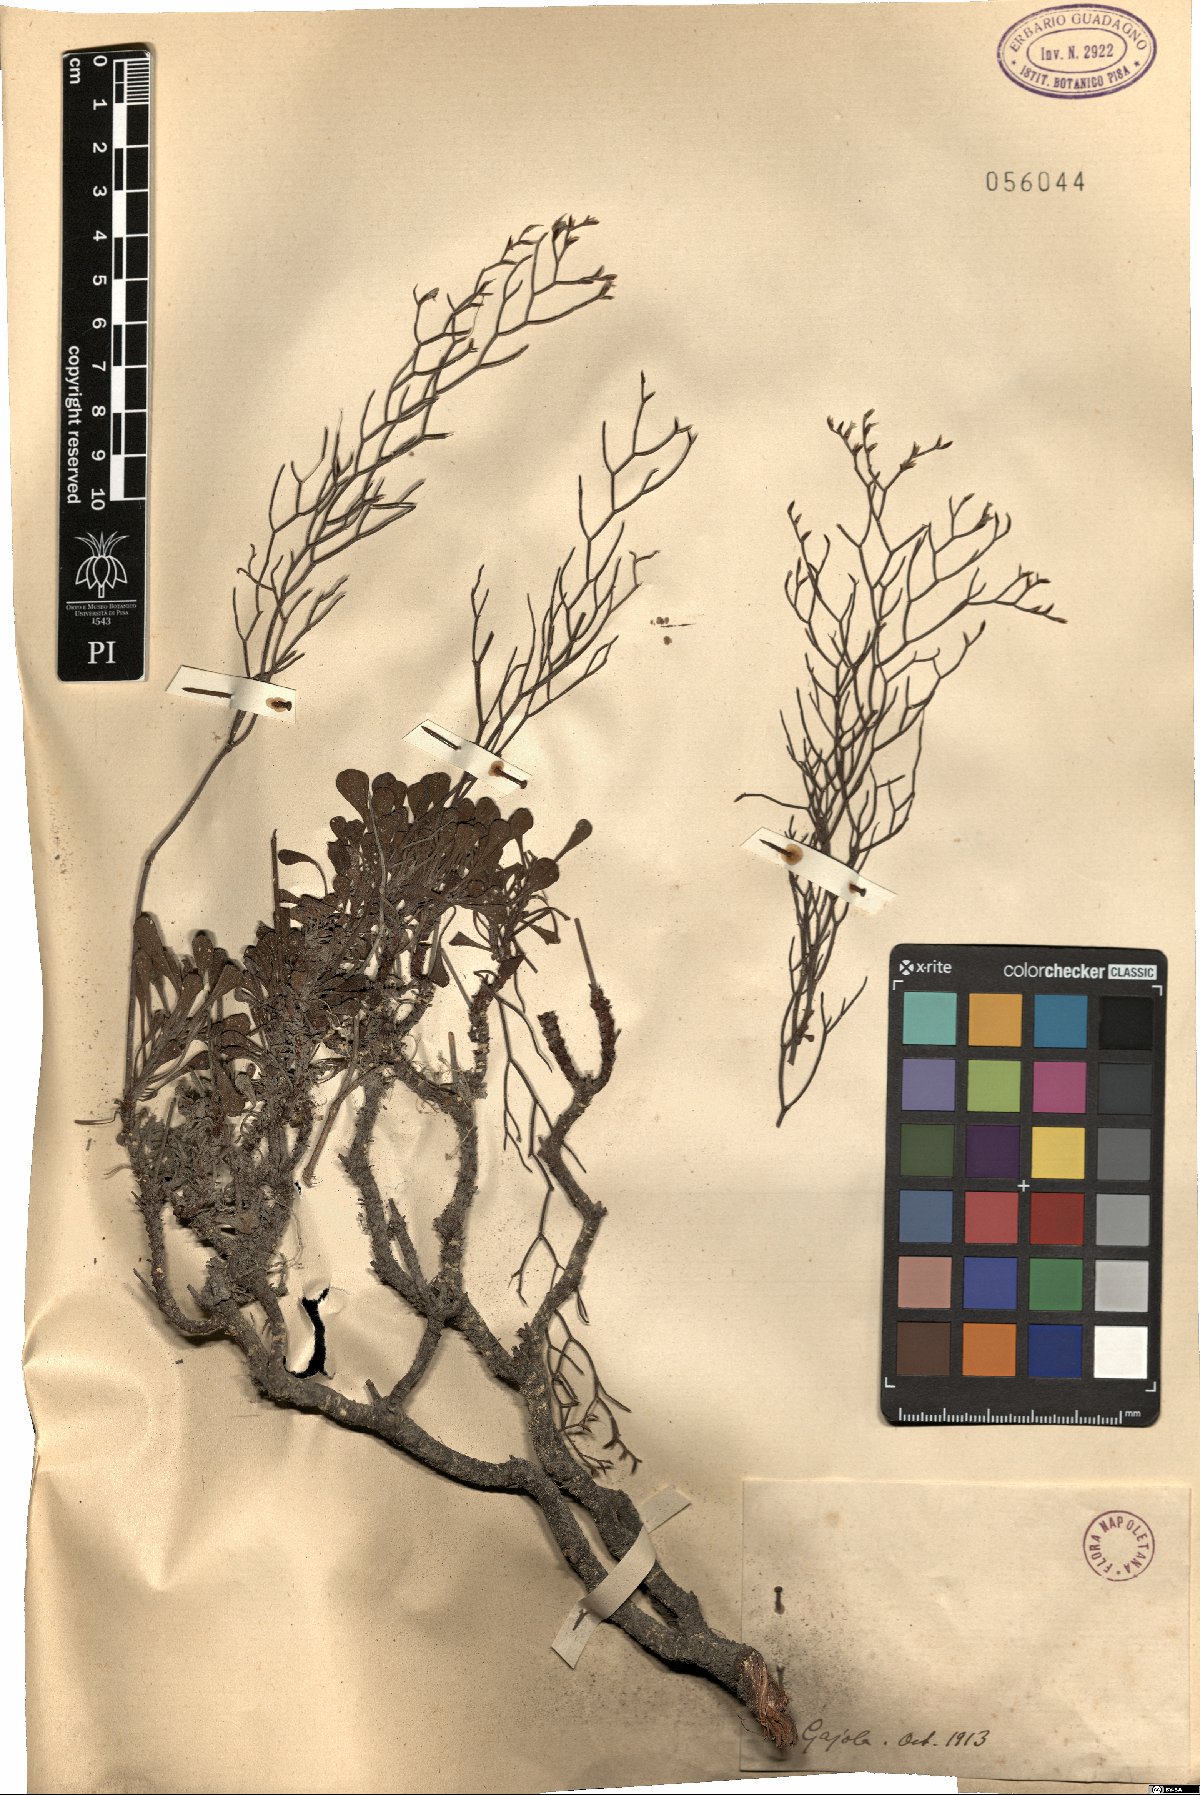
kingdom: Plantae
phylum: Tracheophyta
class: Magnoliopsida
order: Caryophyllales
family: Plumbaginaceae
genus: Armeria
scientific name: Armeria
